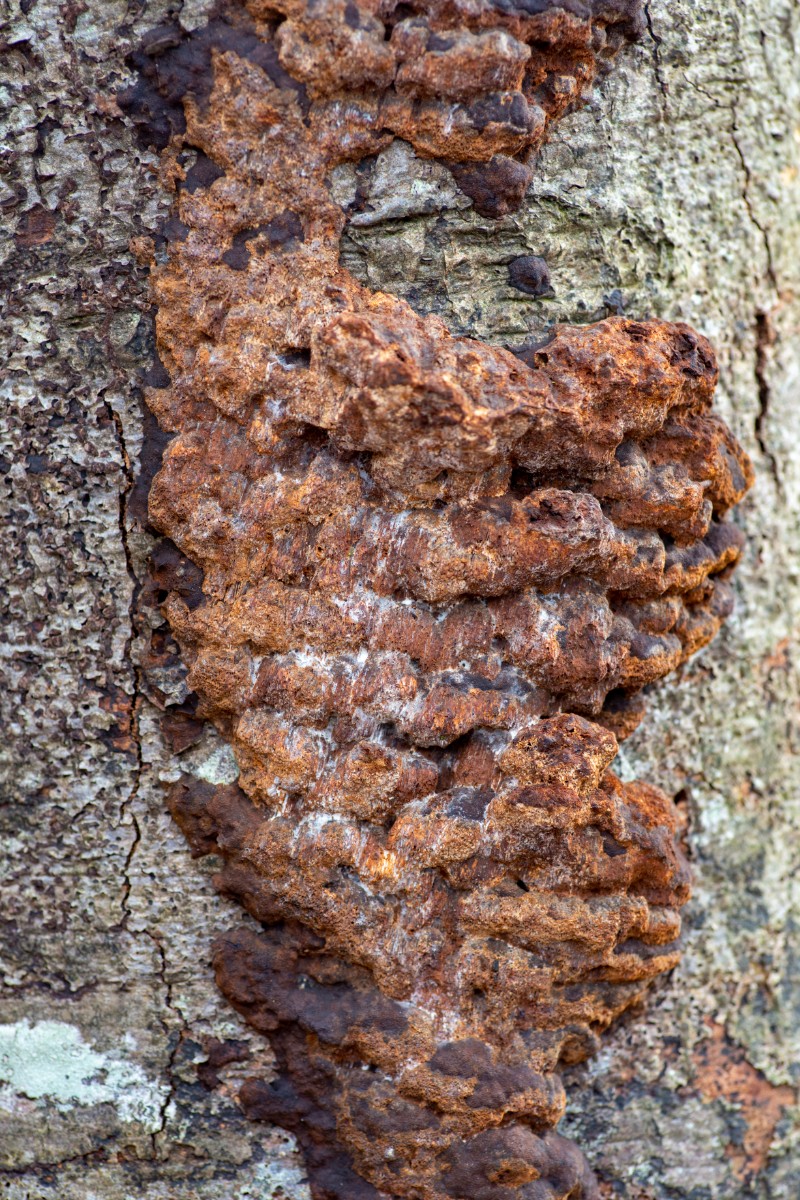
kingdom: Fungi
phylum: Basidiomycota
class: Agaricomycetes
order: Hymenochaetales
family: Hymenochaetaceae
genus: Mensularia
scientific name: Mensularia nodulosa
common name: bøge-spejlporesvamp
